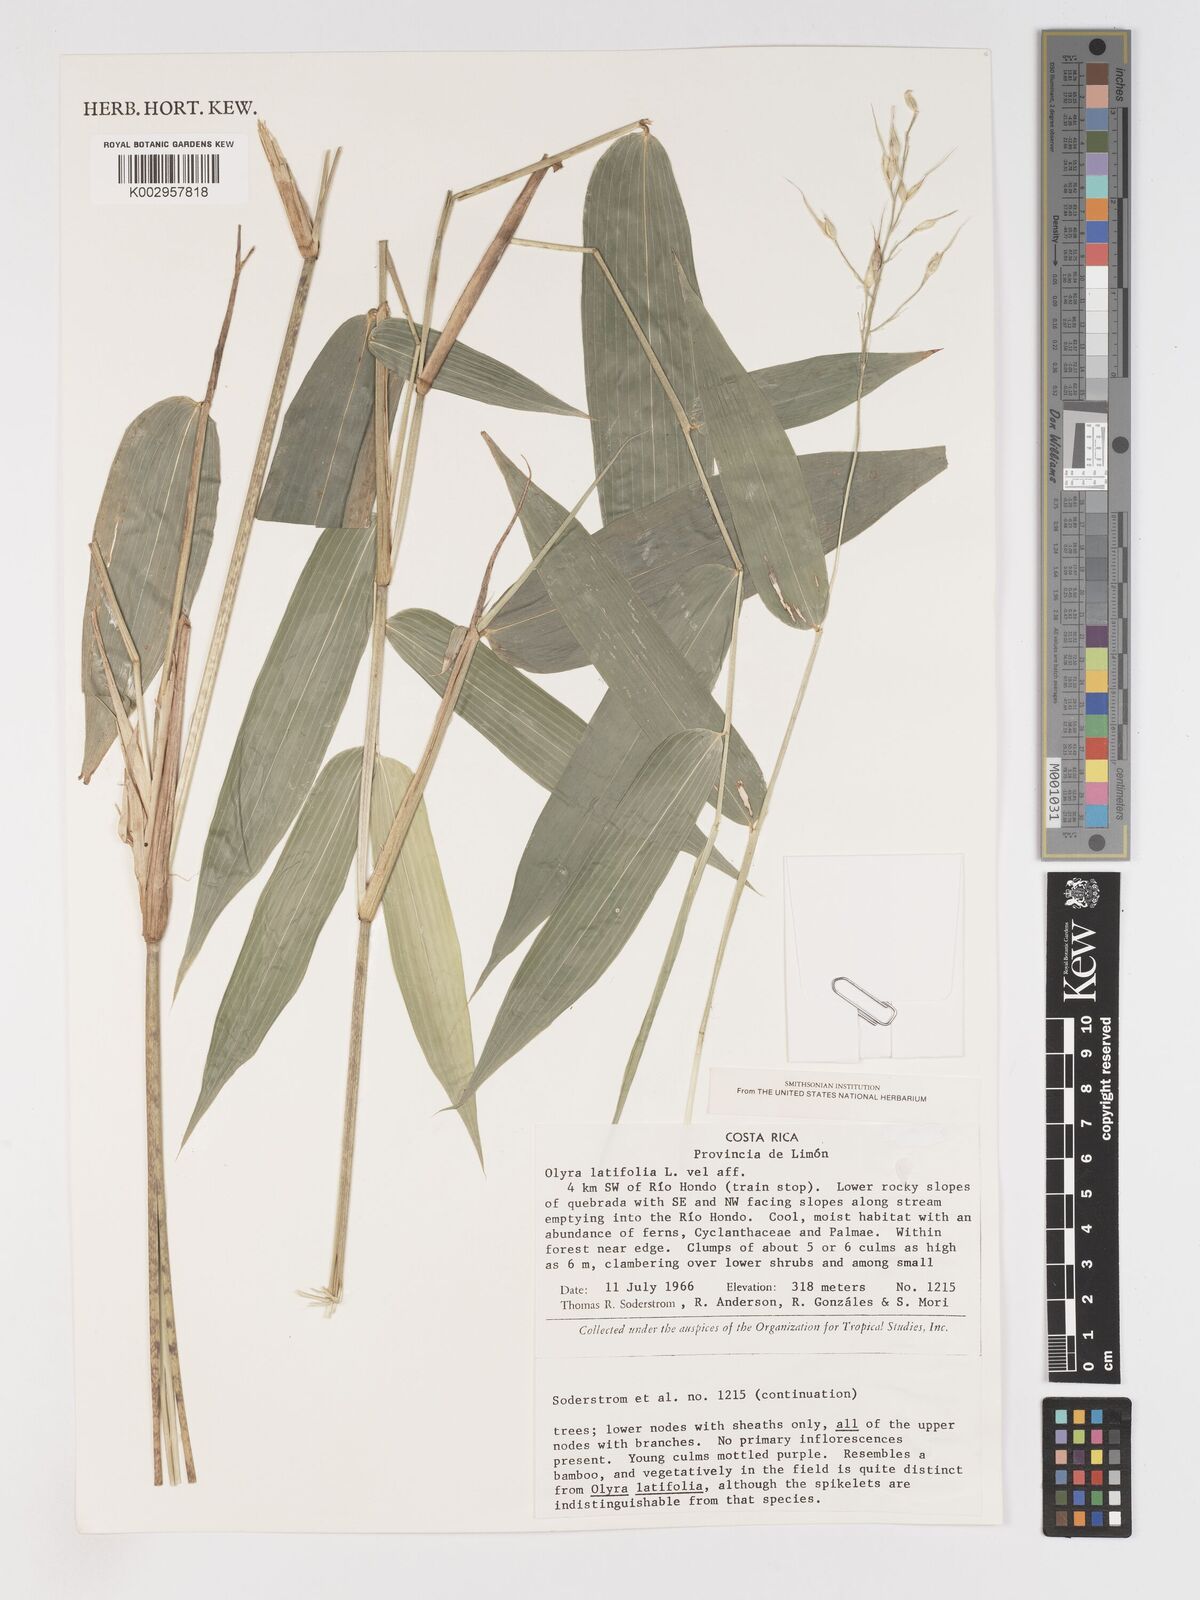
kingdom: Plantae
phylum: Tracheophyta
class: Liliopsida
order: Poales
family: Poaceae
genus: Olyra
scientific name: Olyra latifolia
